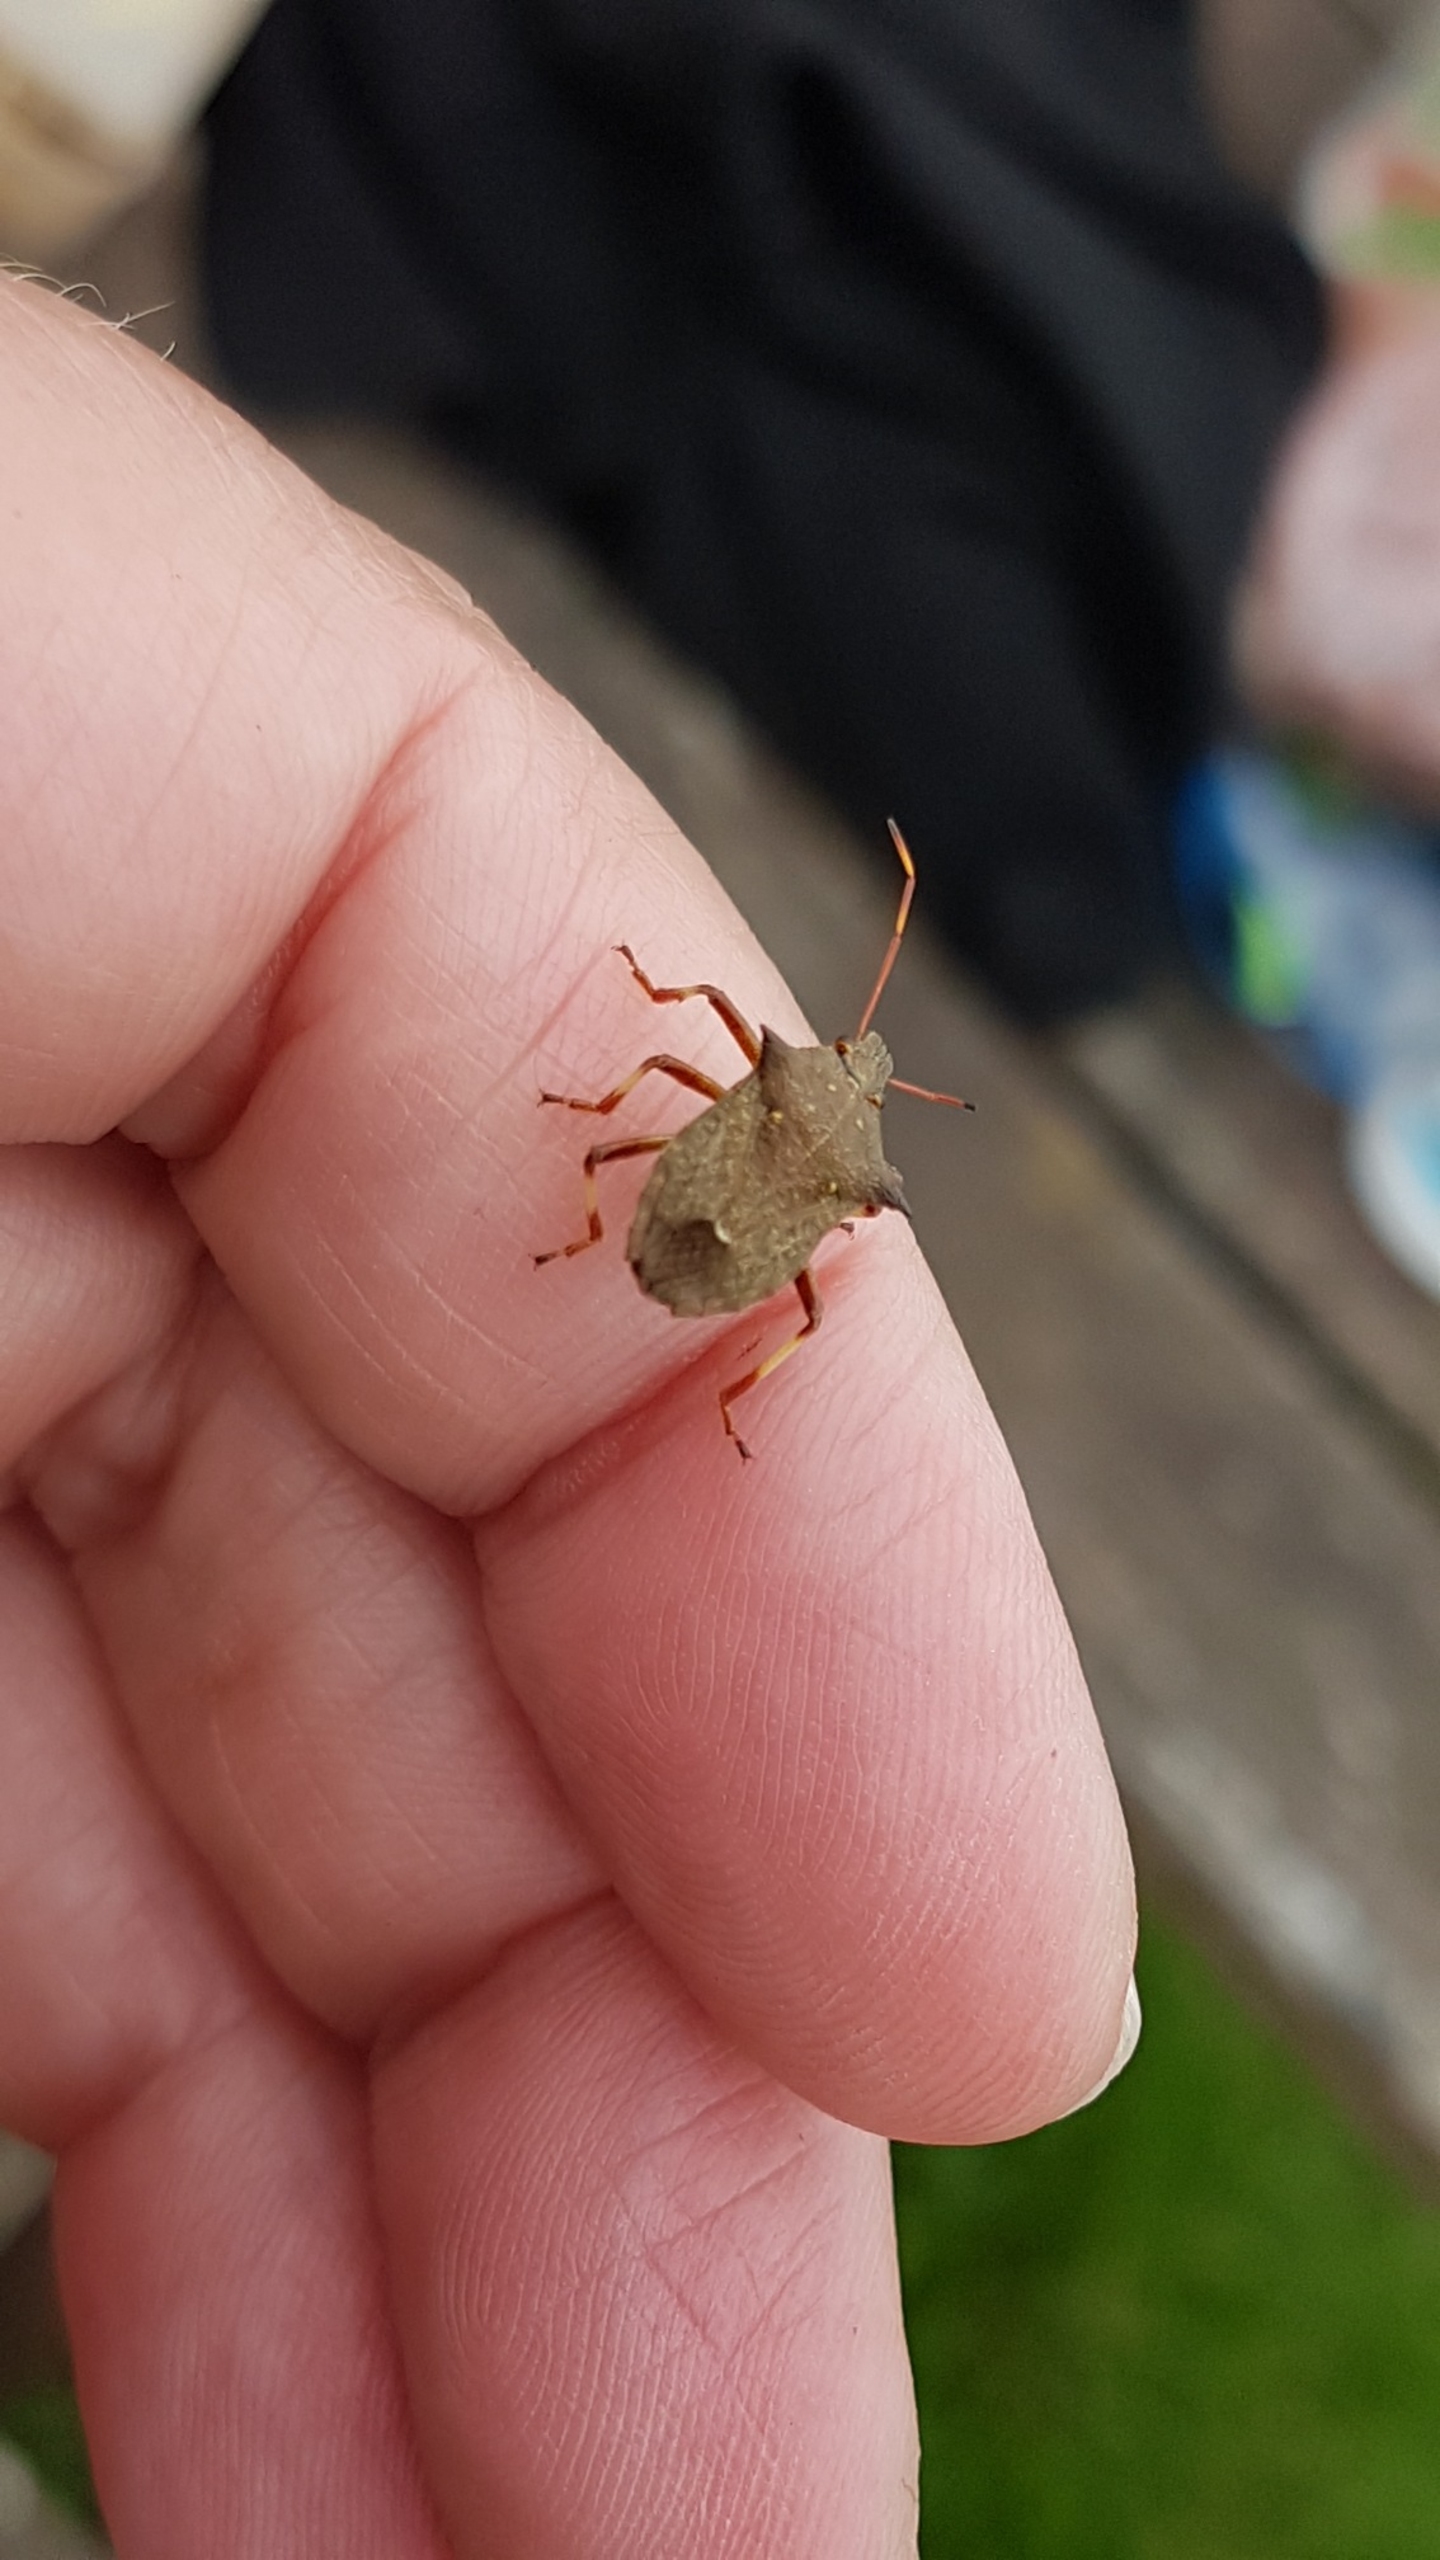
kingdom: Animalia
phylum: Arthropoda
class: Insecta
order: Hemiptera
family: Pentatomidae
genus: Picromerus
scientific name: Picromerus bidens
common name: Torntæge
